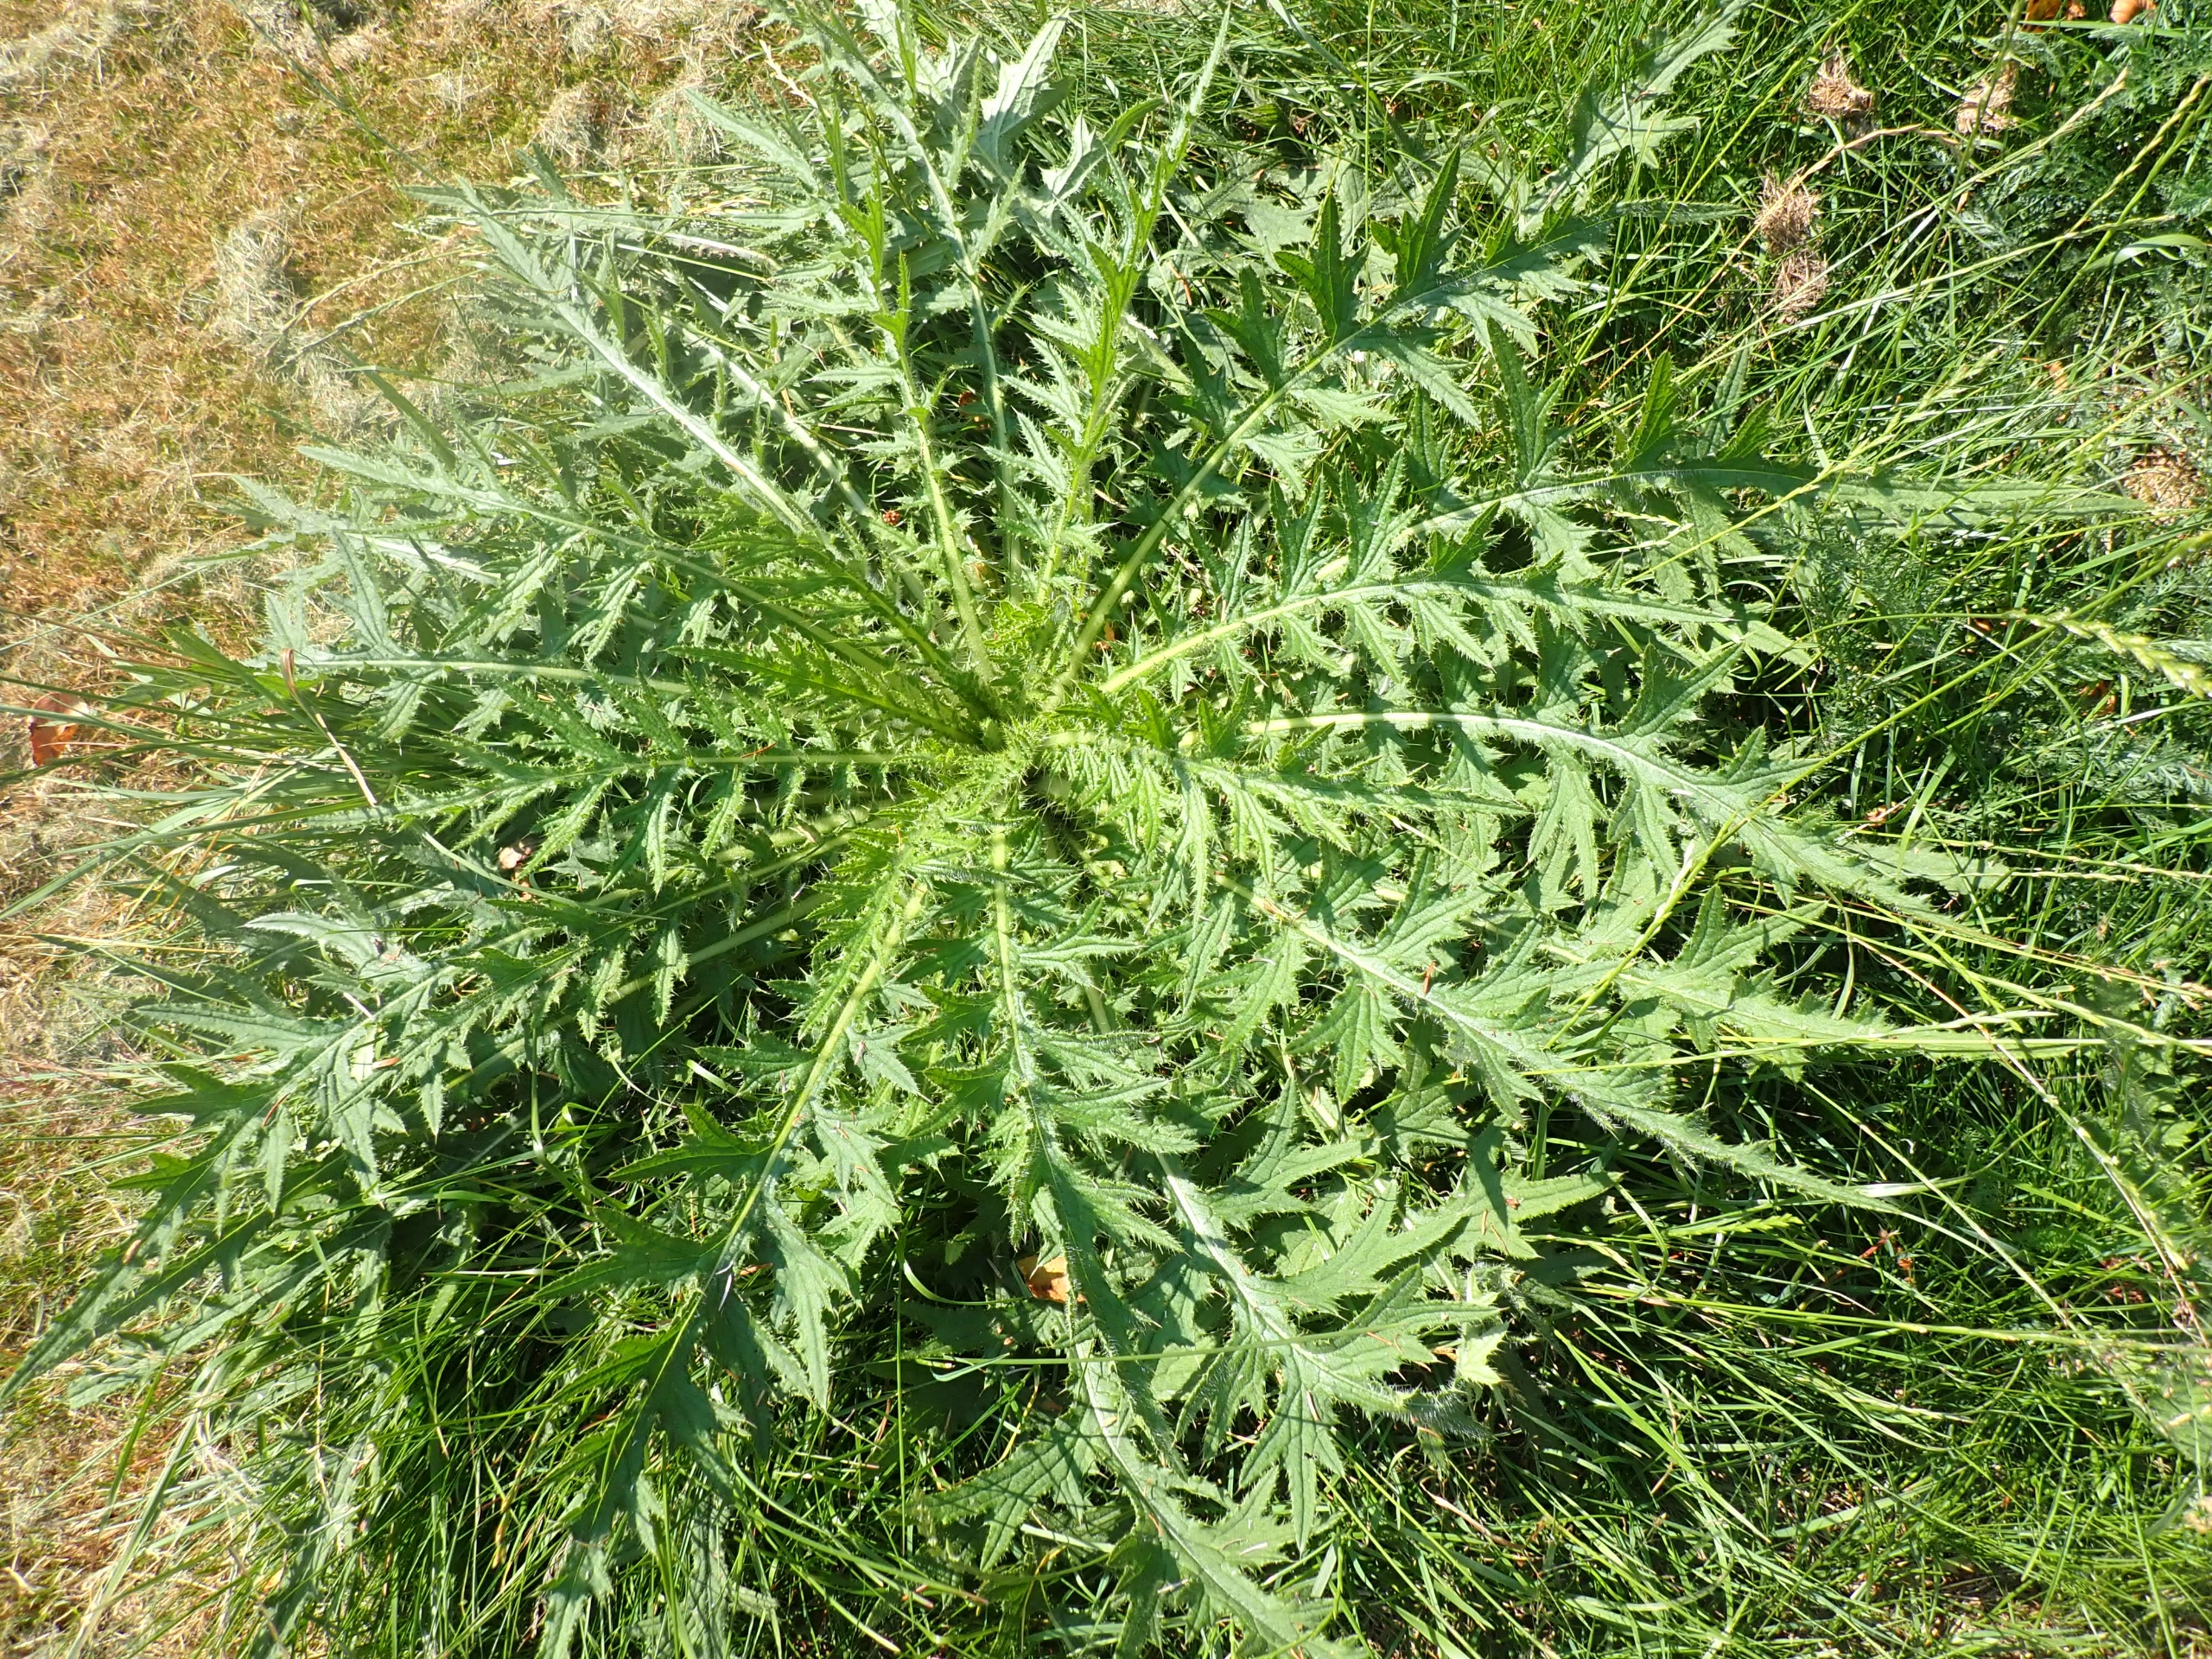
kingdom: Plantae
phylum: Tracheophyta
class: Magnoliopsida
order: Asterales
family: Asteraceae
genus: Cirsium
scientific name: Cirsium palustre
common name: Kær-tidsel
